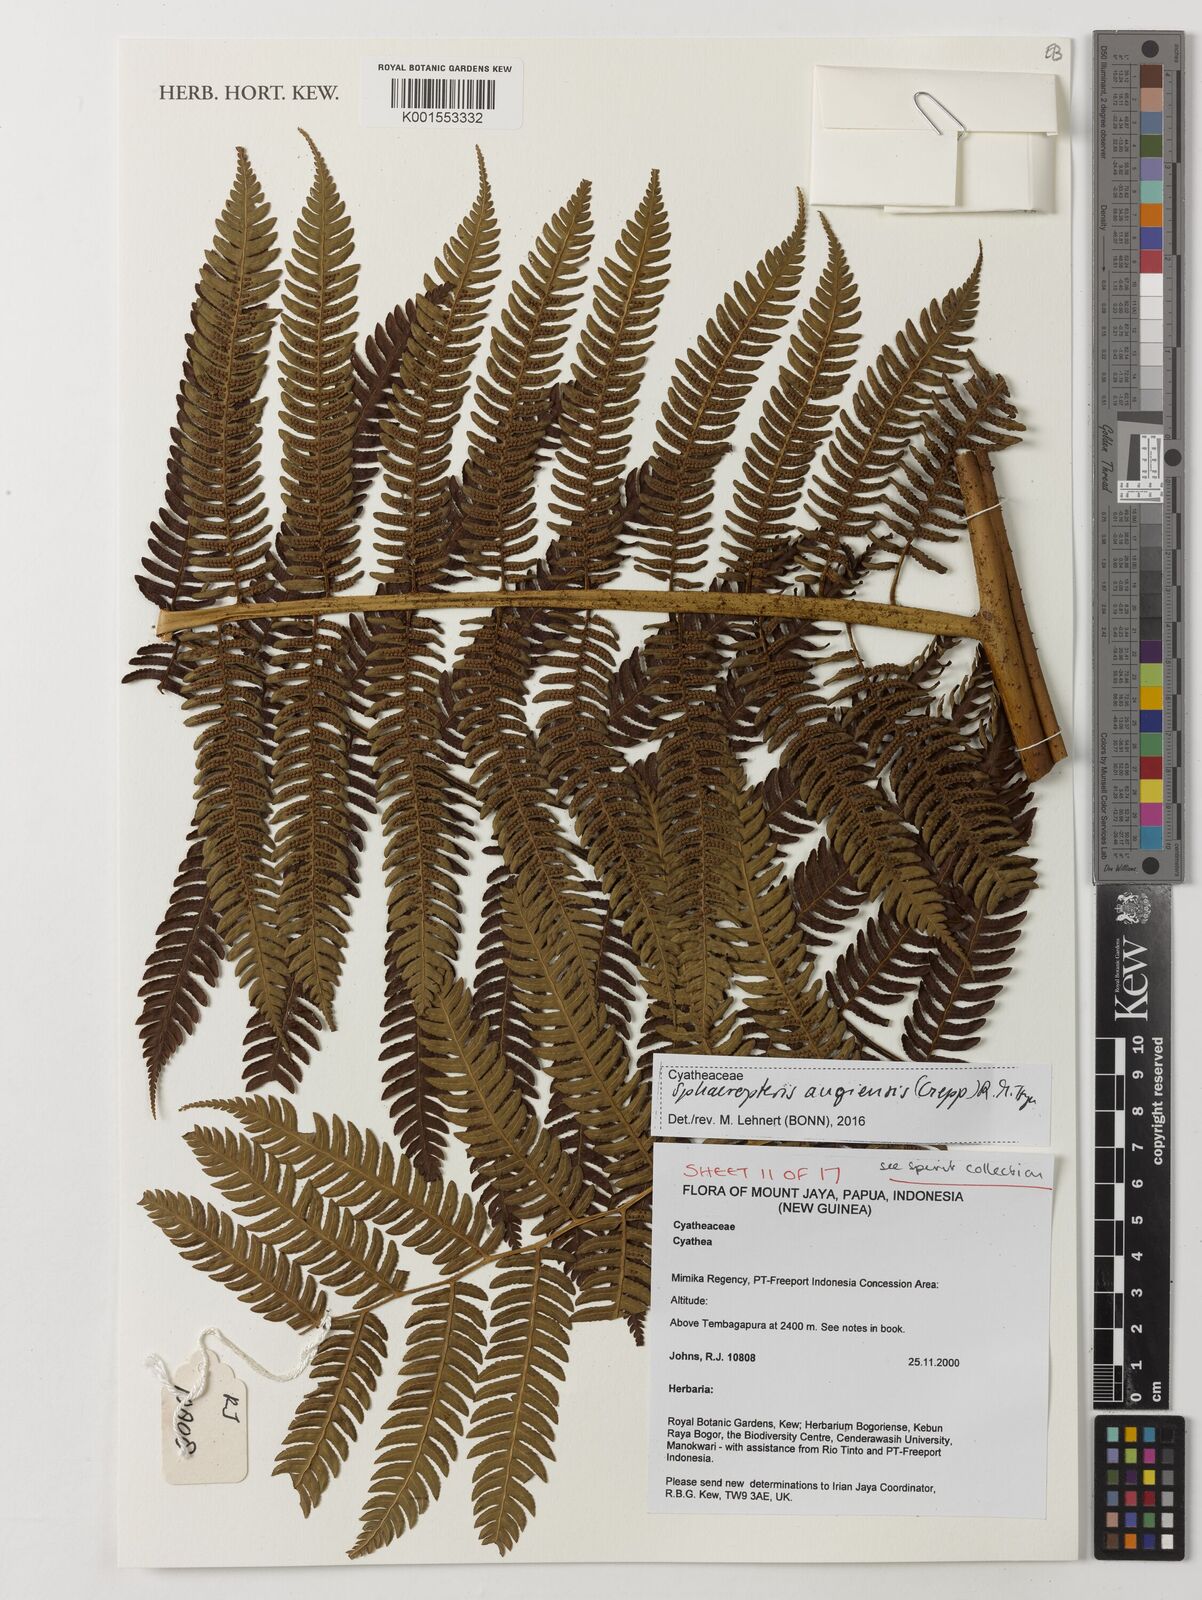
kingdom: Plantae
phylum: Tracheophyta
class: Polypodiopsida
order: Cyatheales
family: Cyatheaceae
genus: Sphaeropteris
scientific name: Sphaeropteris
